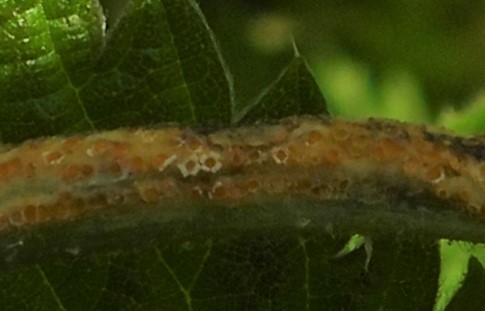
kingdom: Fungi
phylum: Basidiomycota
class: Pucciniomycetes
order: Pucciniales
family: Pucciniaceae
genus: Puccinia
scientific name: Puccinia urticata
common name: nældegalle-tvecellerust
